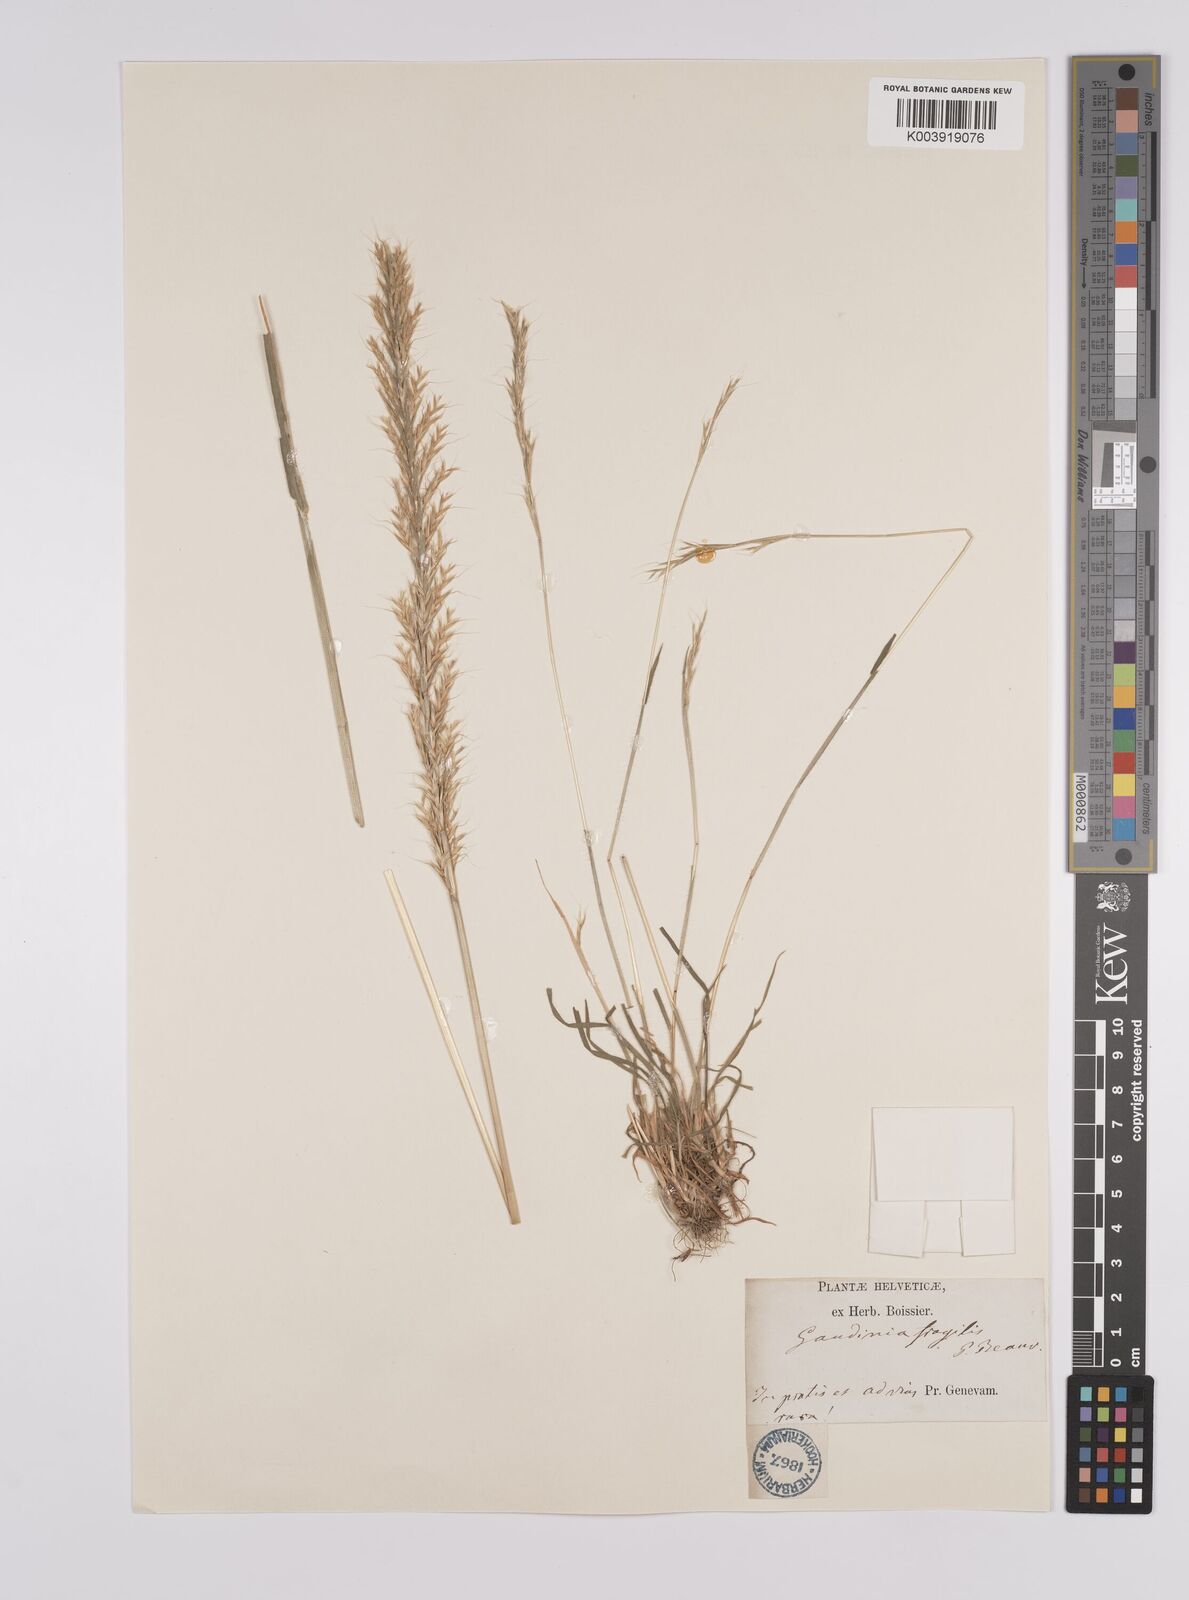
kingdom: Plantae
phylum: Tracheophyta
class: Liliopsida
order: Poales
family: Poaceae
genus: Gaudinia
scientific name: Gaudinia fragilis
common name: French oat-grass
